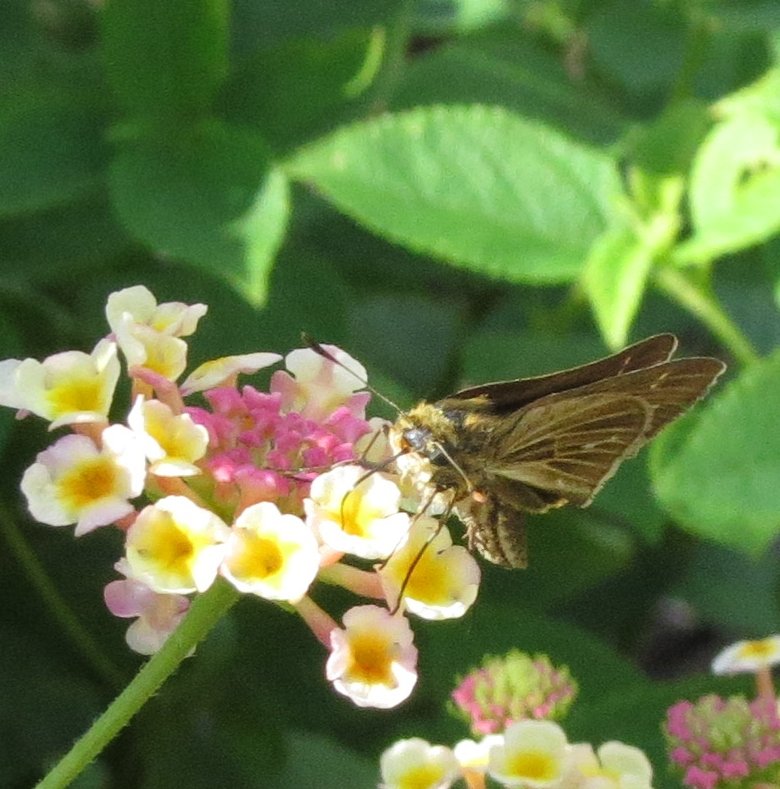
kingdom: Animalia
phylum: Arthropoda
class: Insecta
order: Lepidoptera
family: Hesperiidae
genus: Panoquina
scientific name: Panoquina ocola
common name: Ocola Skipper
